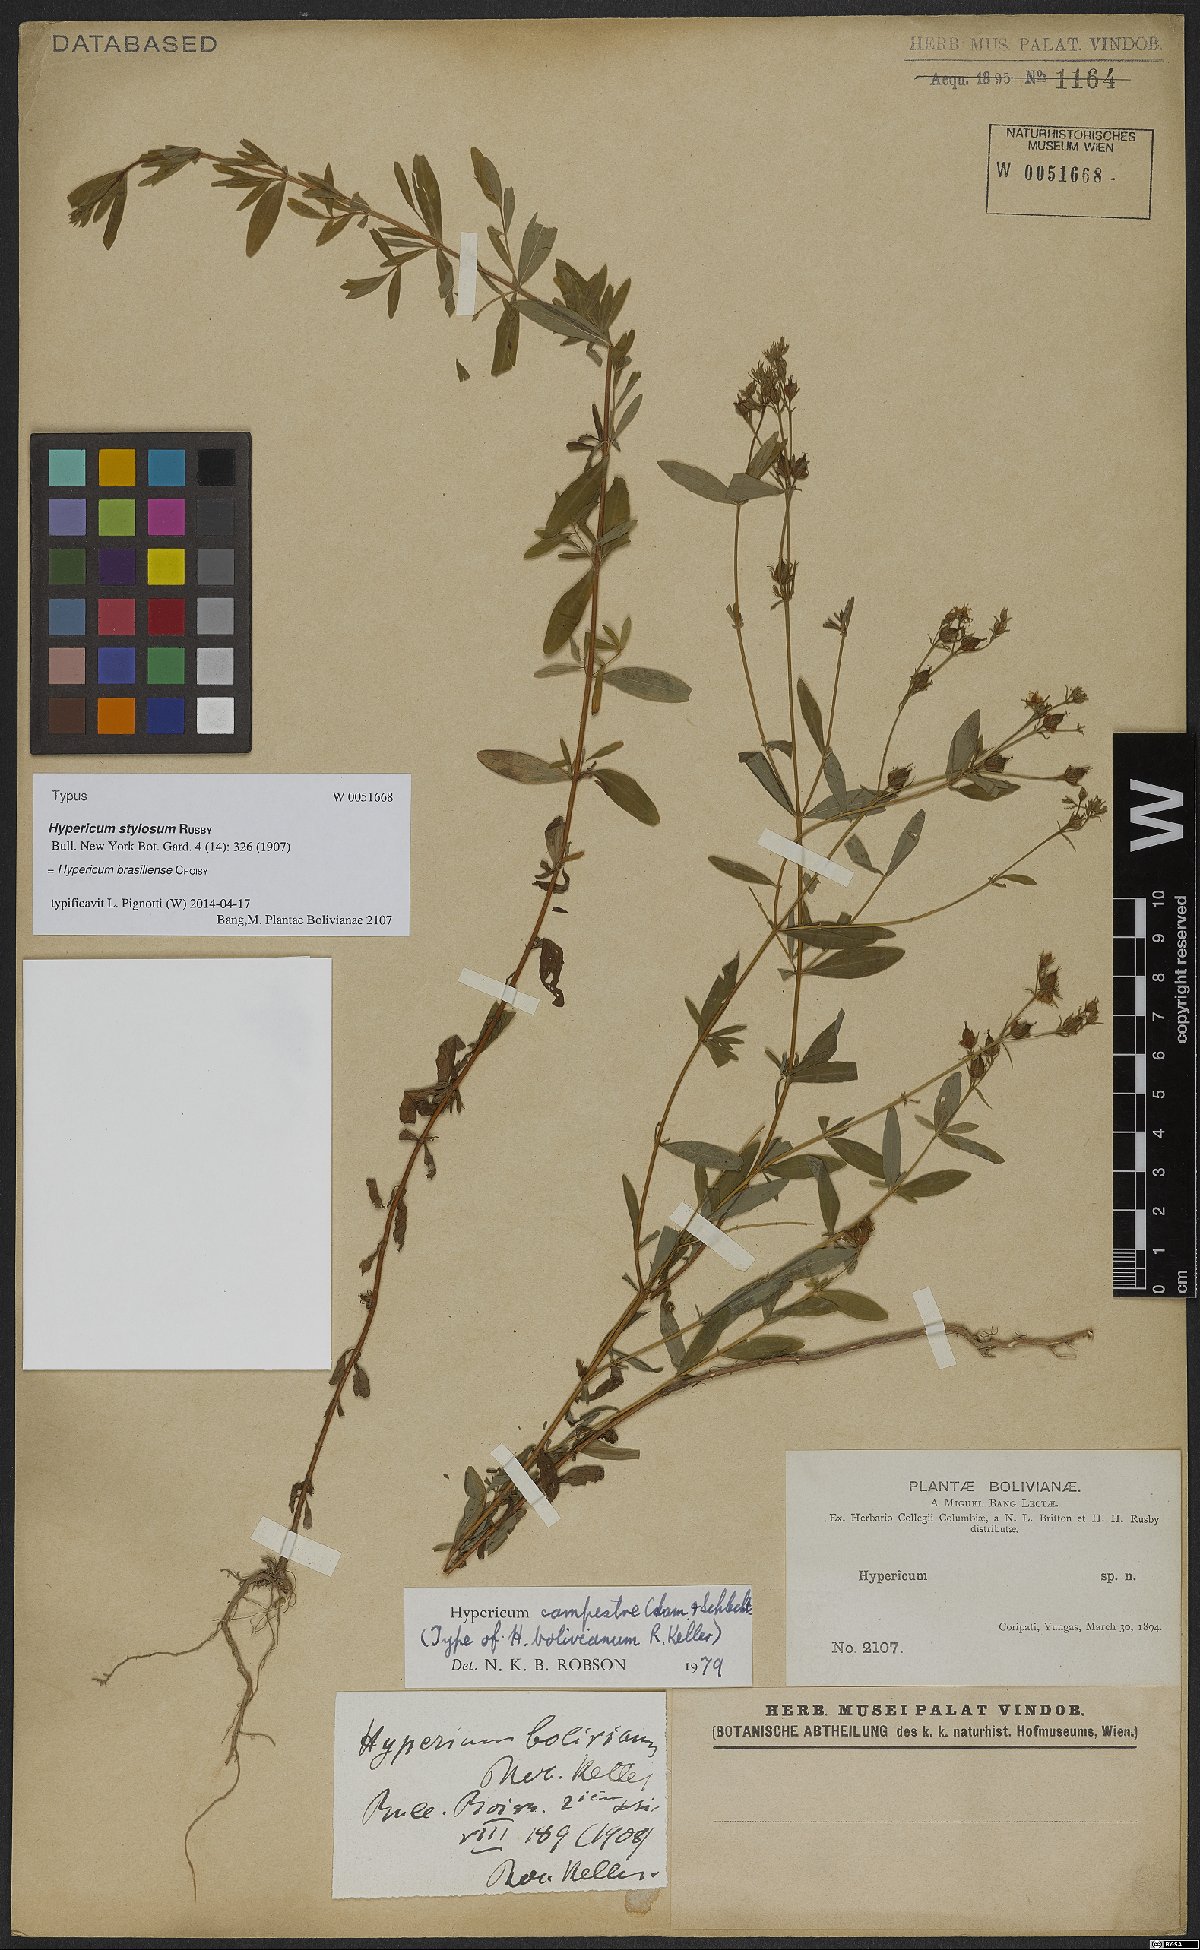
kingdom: Plantae
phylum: Tracheophyta
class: Magnoliopsida
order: Malpighiales
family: Hypericaceae
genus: Hypericum
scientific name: Hypericum brasiliense
